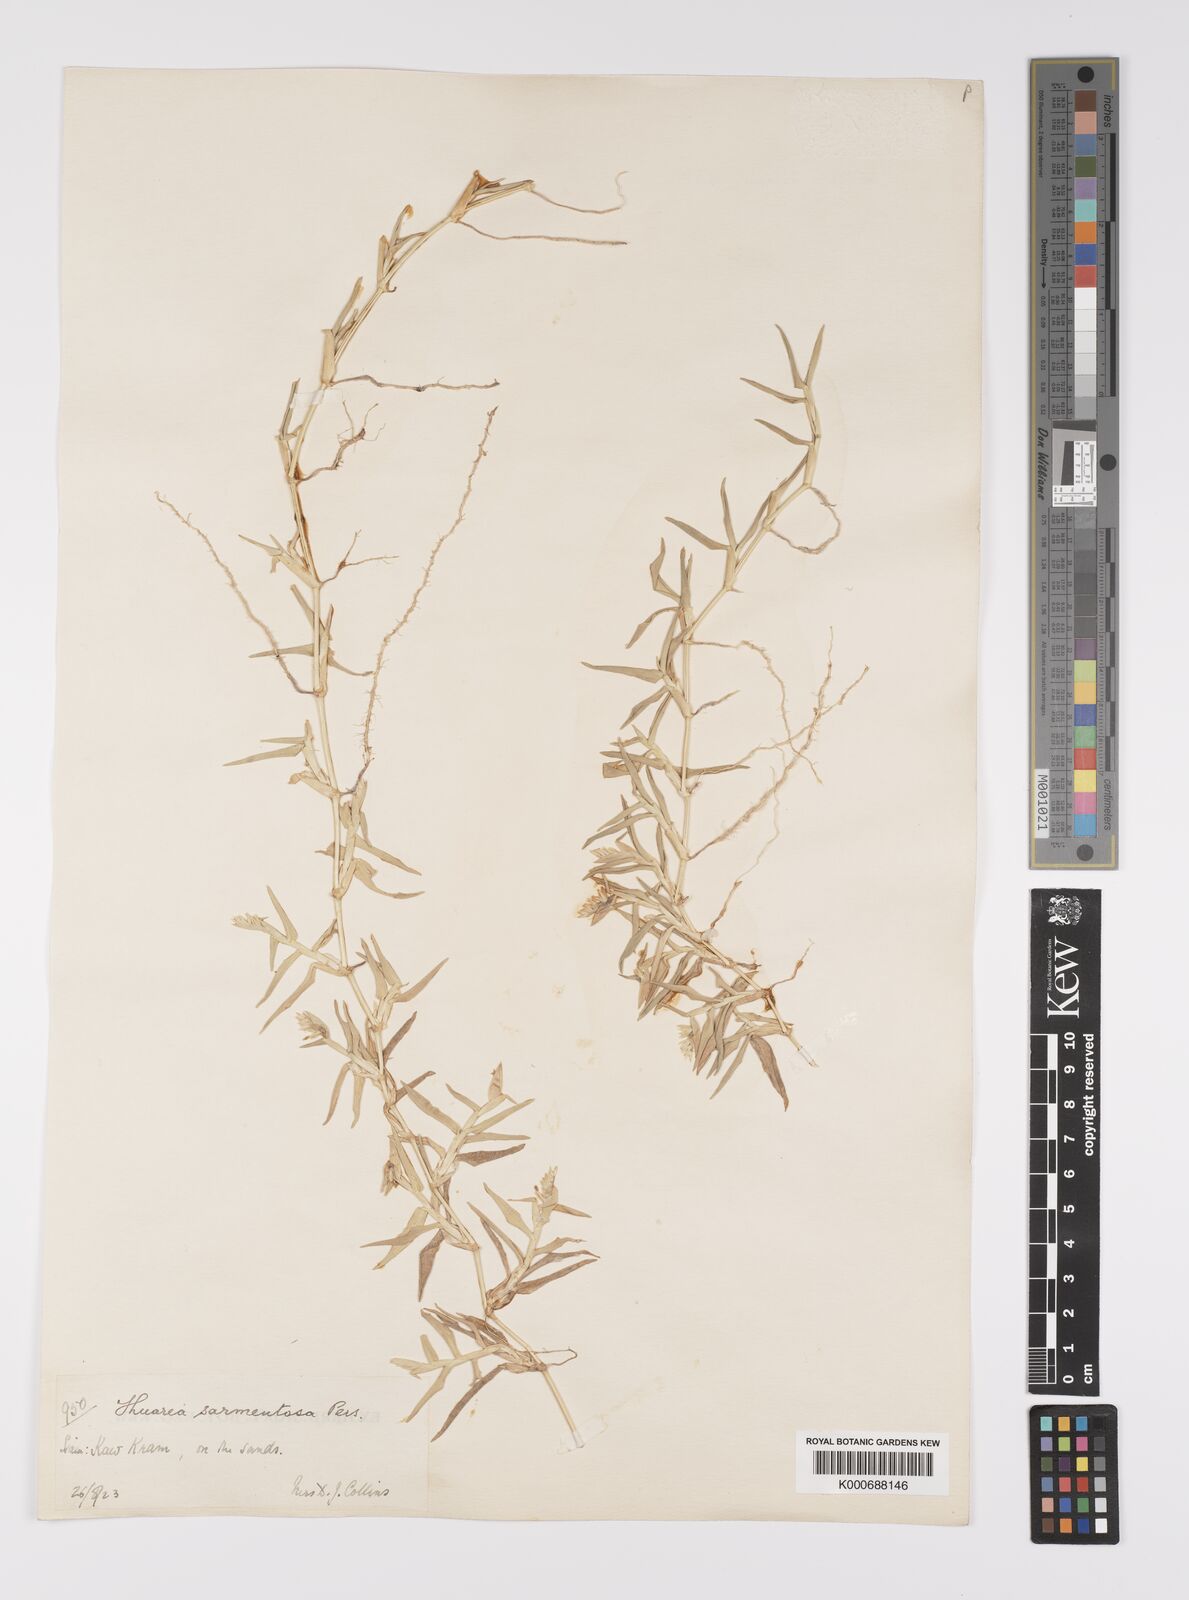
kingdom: Plantae
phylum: Tracheophyta
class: Liliopsida
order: Poales
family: Poaceae
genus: Thuarea
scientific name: Thuarea involuta
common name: Tropical beach grass
